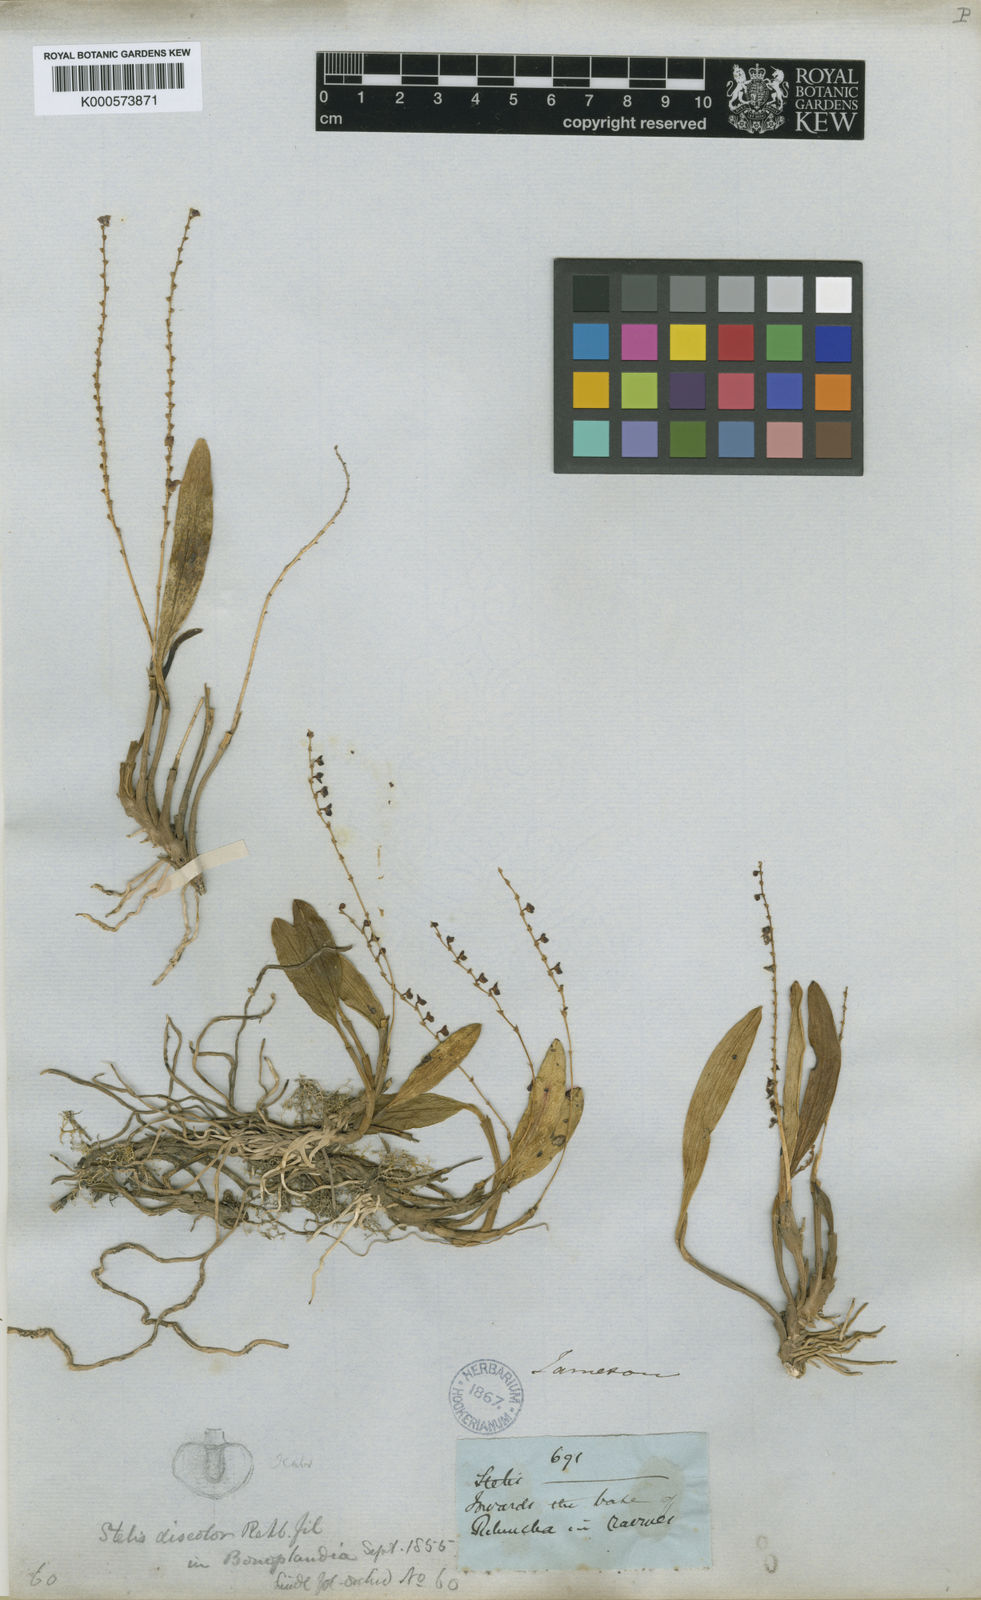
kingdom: Plantae
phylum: Tracheophyta
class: Liliopsida
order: Asparagales
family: Orchidaceae
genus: Stelis
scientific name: Stelis discolor
